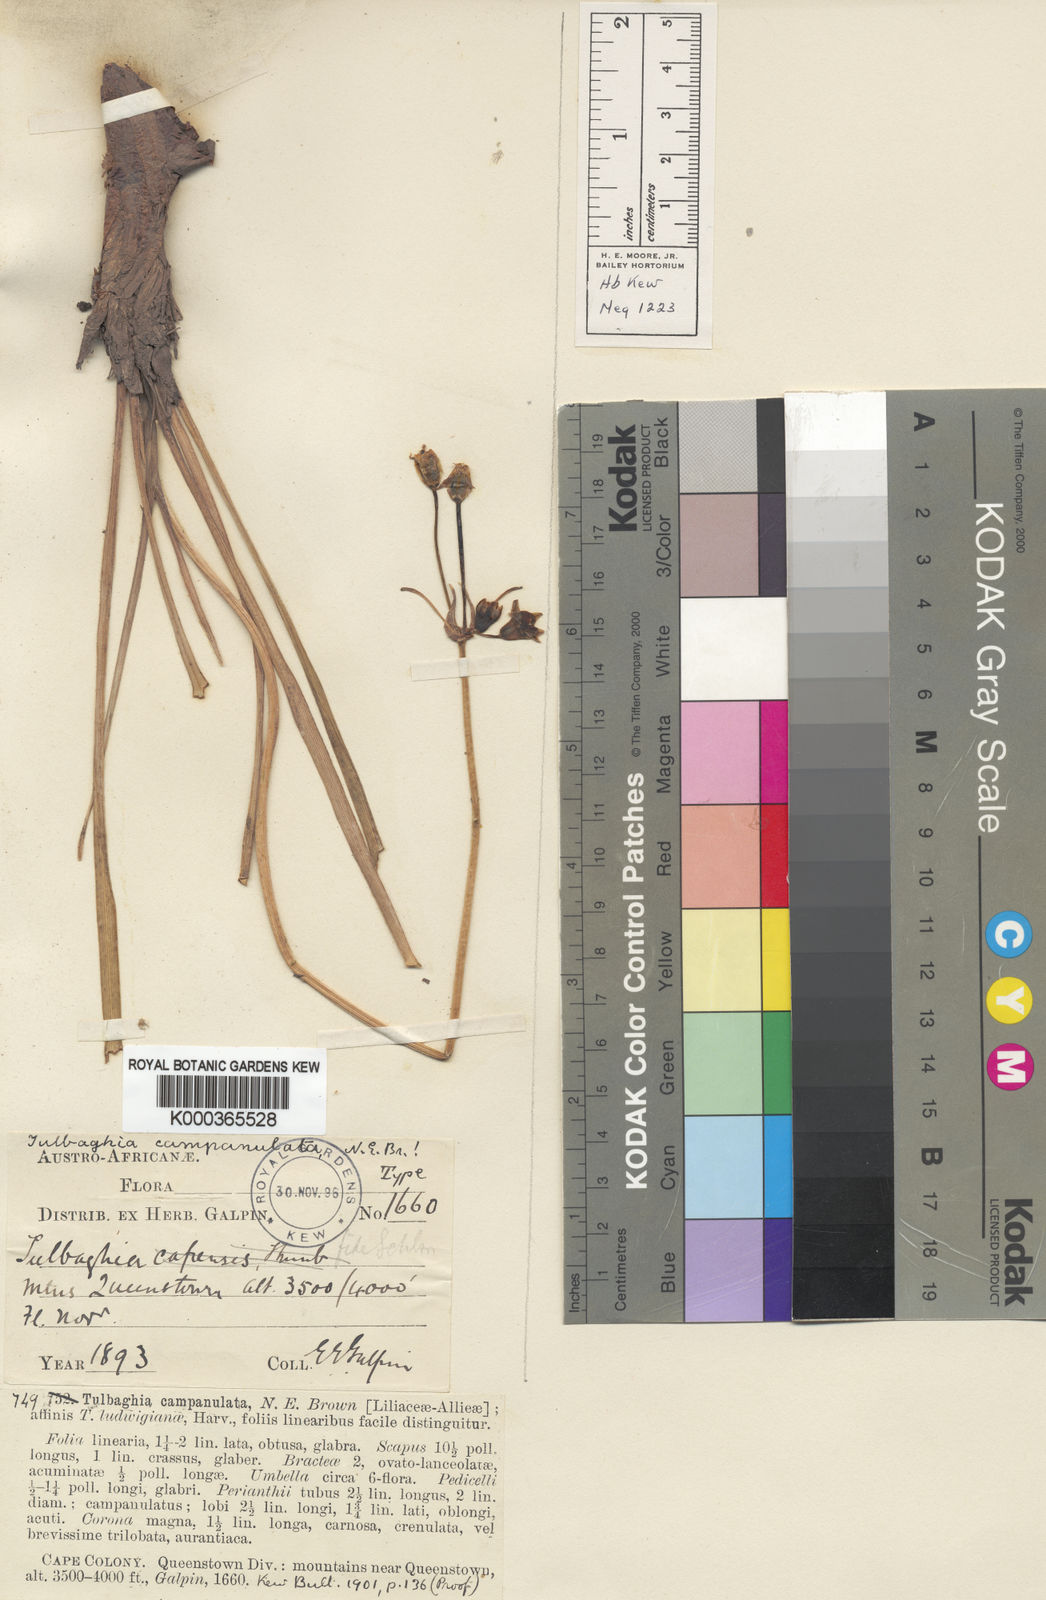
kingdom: Plantae
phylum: Tracheophyta
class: Liliopsida
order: Asparagales
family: Amaryllidaceae
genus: Tulbaghia
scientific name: Tulbaghia cernua
